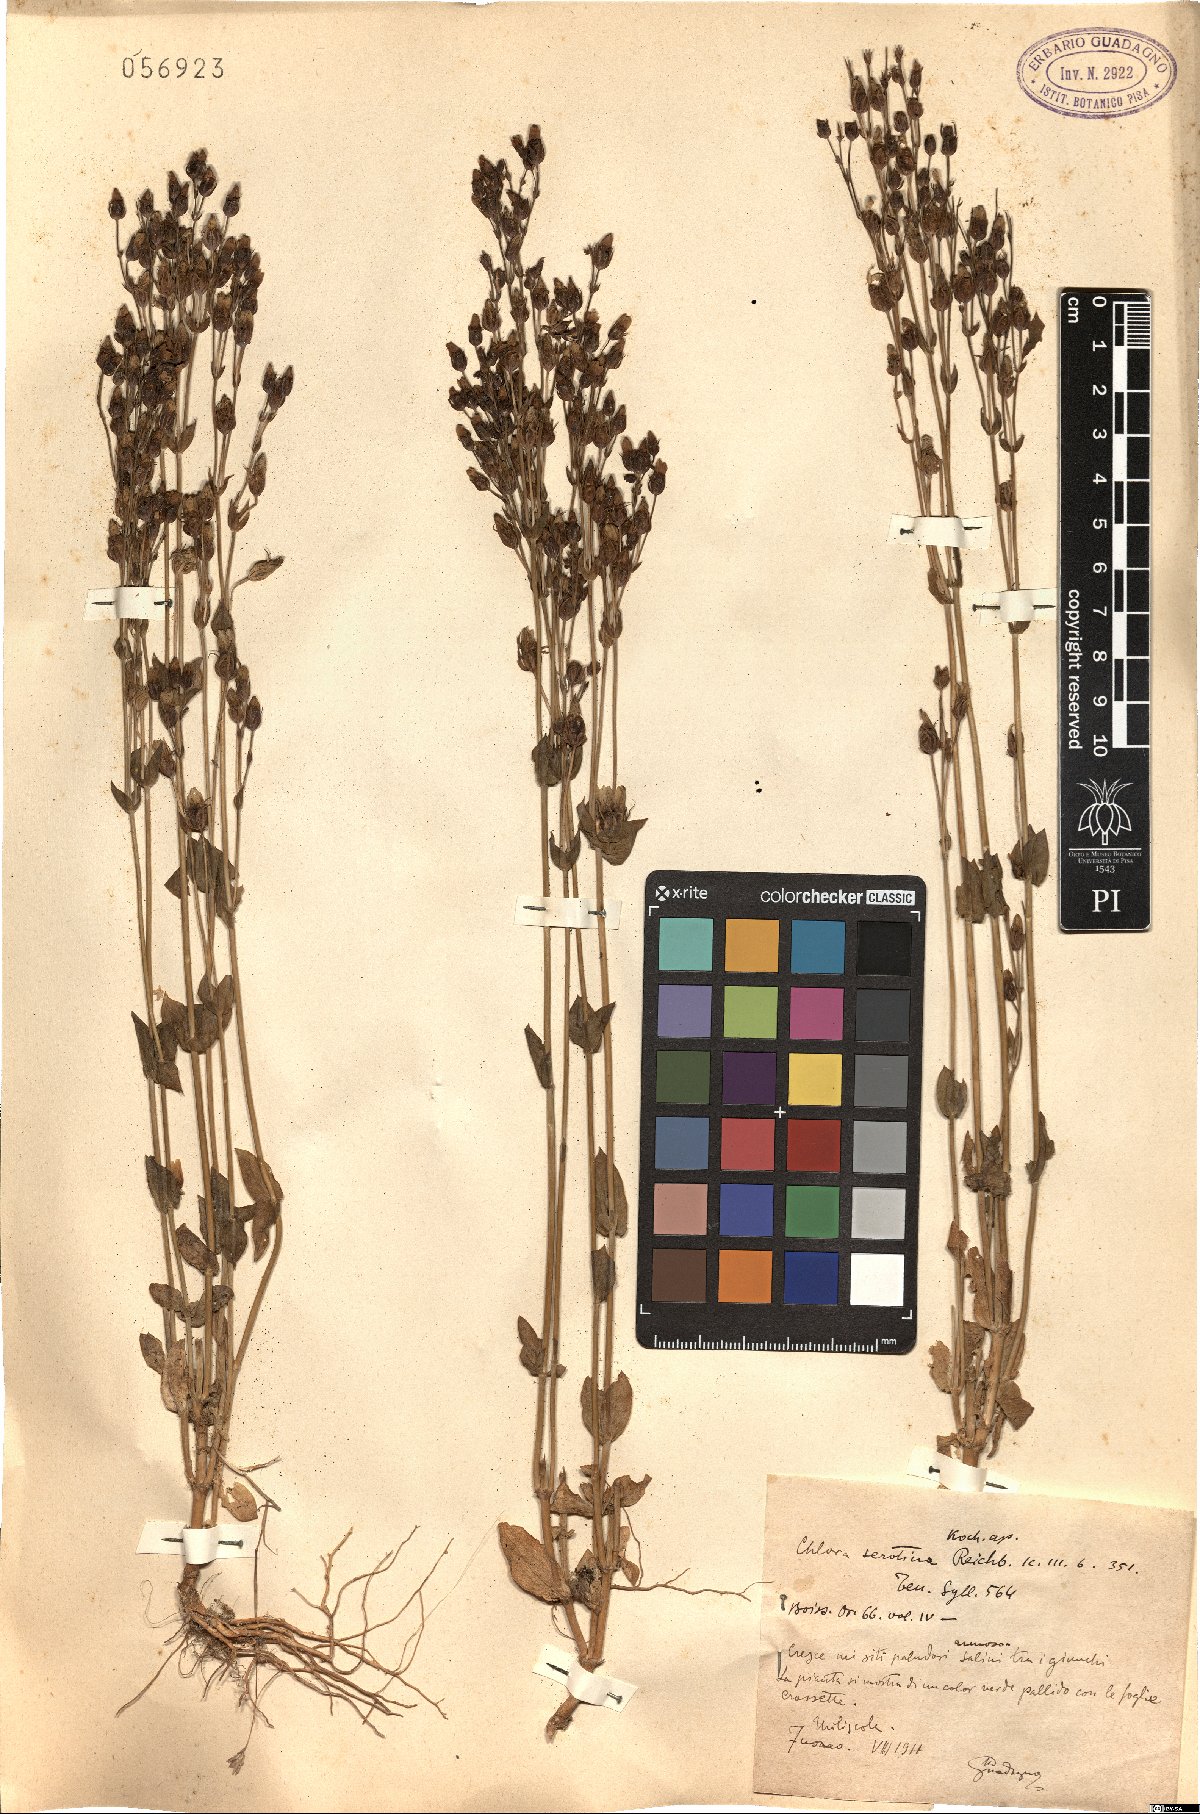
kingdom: Plantae
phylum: Tracheophyta
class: Magnoliopsida
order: Gentianales
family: Gentianaceae
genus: Blackstonia
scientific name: Blackstonia acuminata
